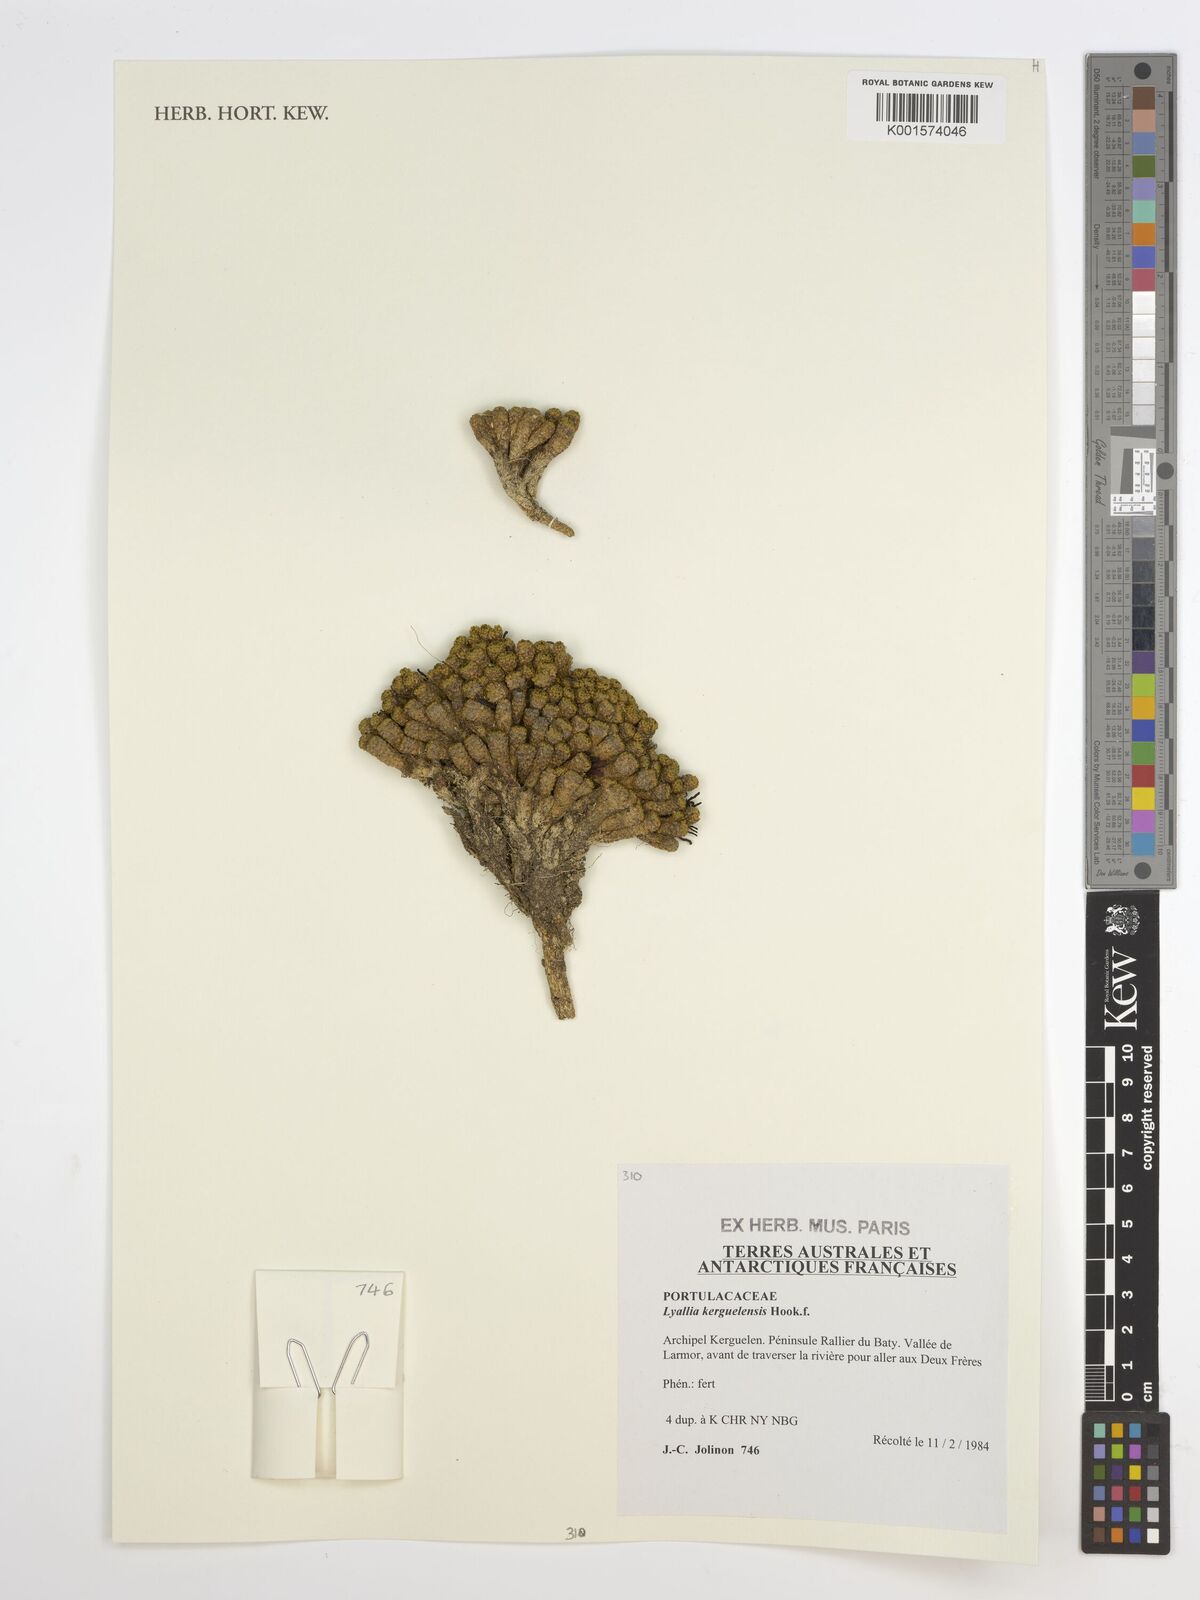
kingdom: Plantae
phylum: Tracheophyta
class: Magnoliopsida
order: Caryophyllales
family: Montiaceae
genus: Lyallia
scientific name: Lyallia kerguelensis
